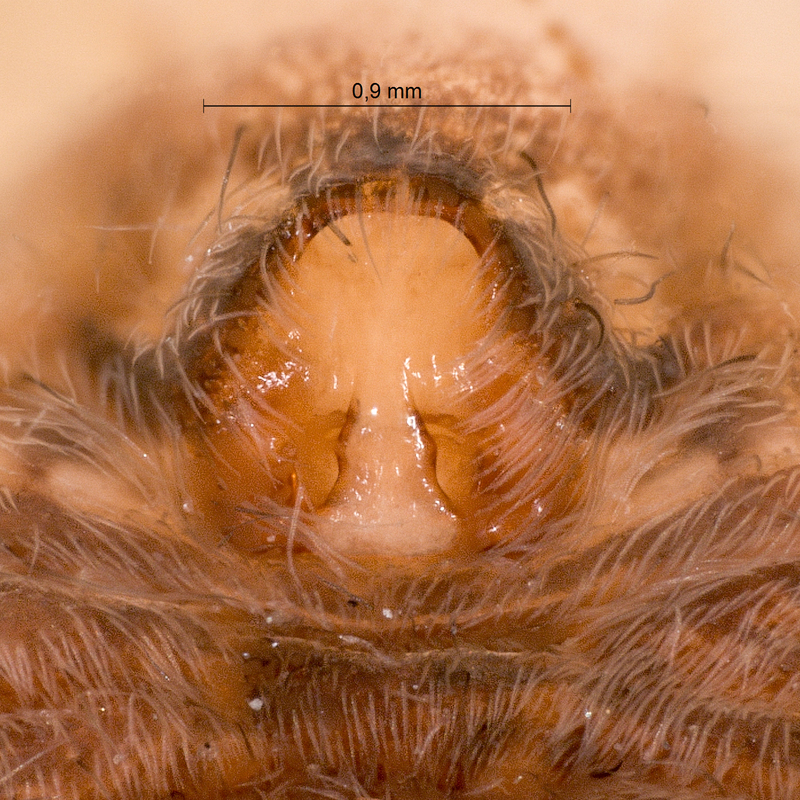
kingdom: Animalia
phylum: Arthropoda
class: Arachnida
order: Araneae
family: Lycosidae
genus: Pardosa
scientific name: Pardosa hortensis
